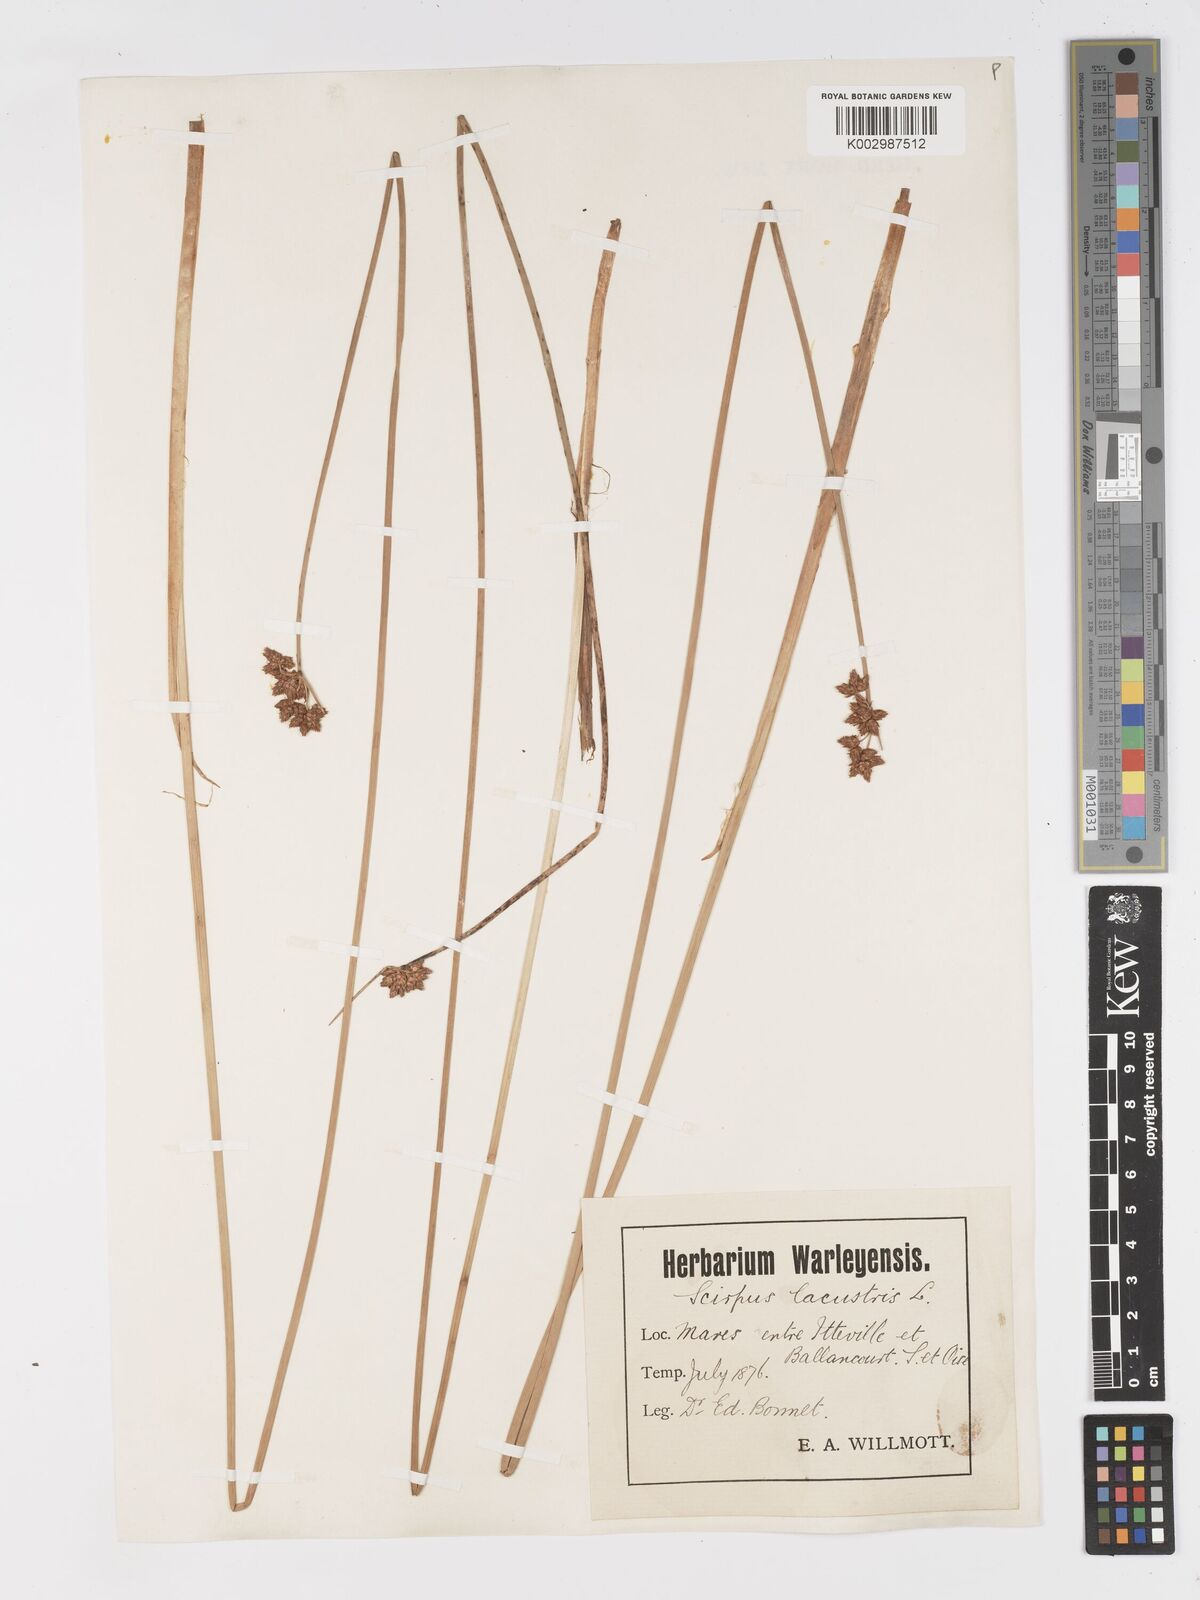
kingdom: Plantae
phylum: Tracheophyta
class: Liliopsida
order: Poales
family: Cyperaceae
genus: Schoenoplectus
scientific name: Schoenoplectus lacustris
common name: Common club-rush
